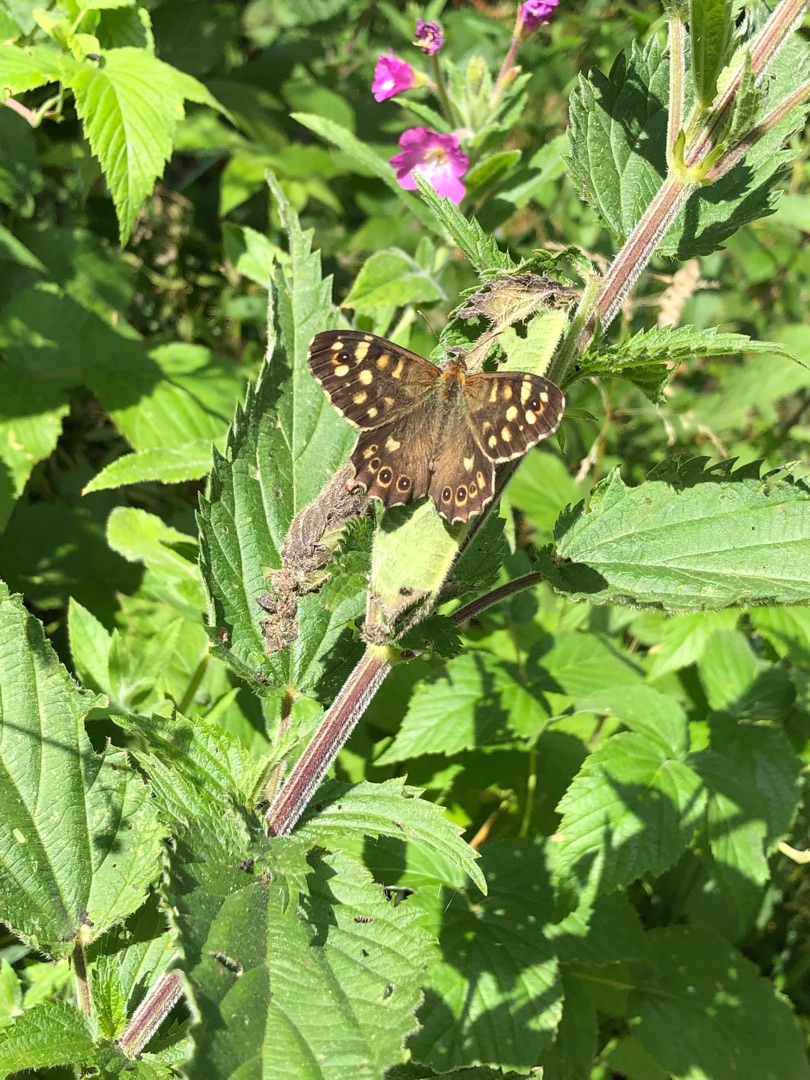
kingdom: Animalia
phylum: Arthropoda
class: Insecta
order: Lepidoptera
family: Nymphalidae
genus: Pararge
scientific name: Pararge aegeria
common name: Skovrandøje
